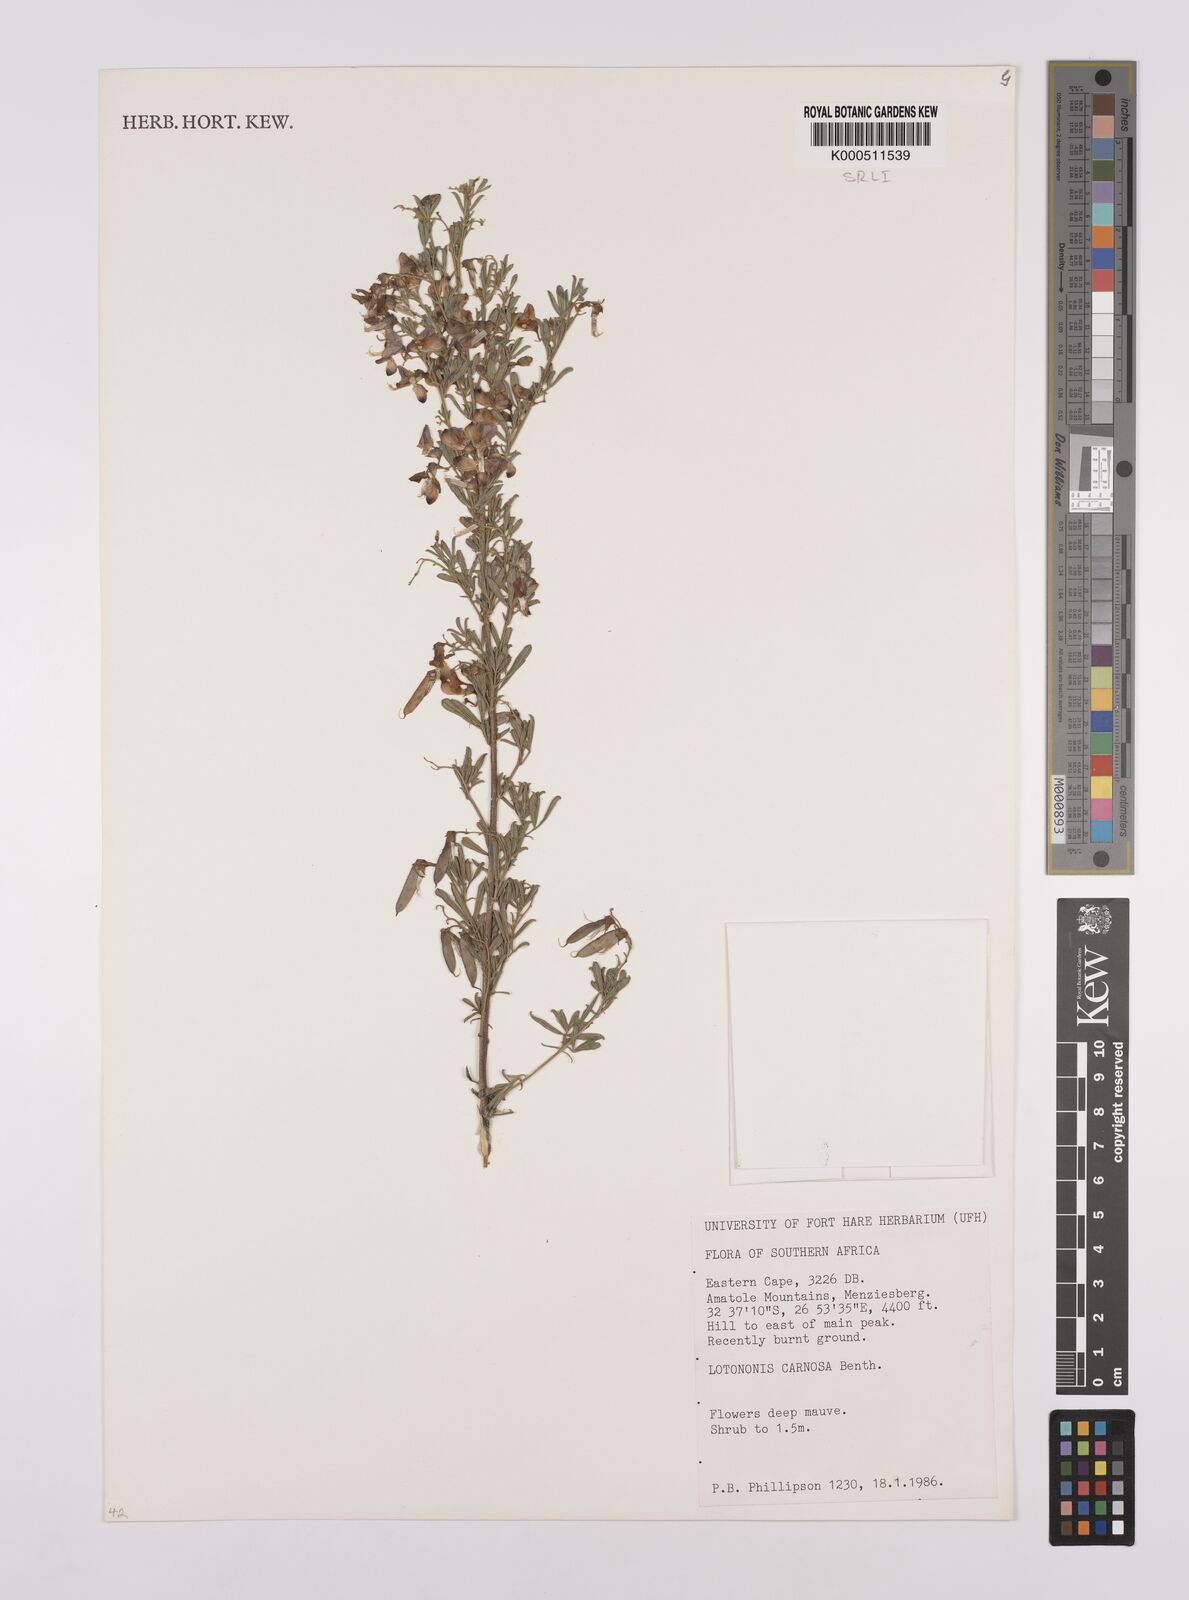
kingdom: Plantae
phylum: Tracheophyta
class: Magnoliopsida
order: Fabales
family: Fabaceae
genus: Lotononis
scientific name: Lotononis carnosa
